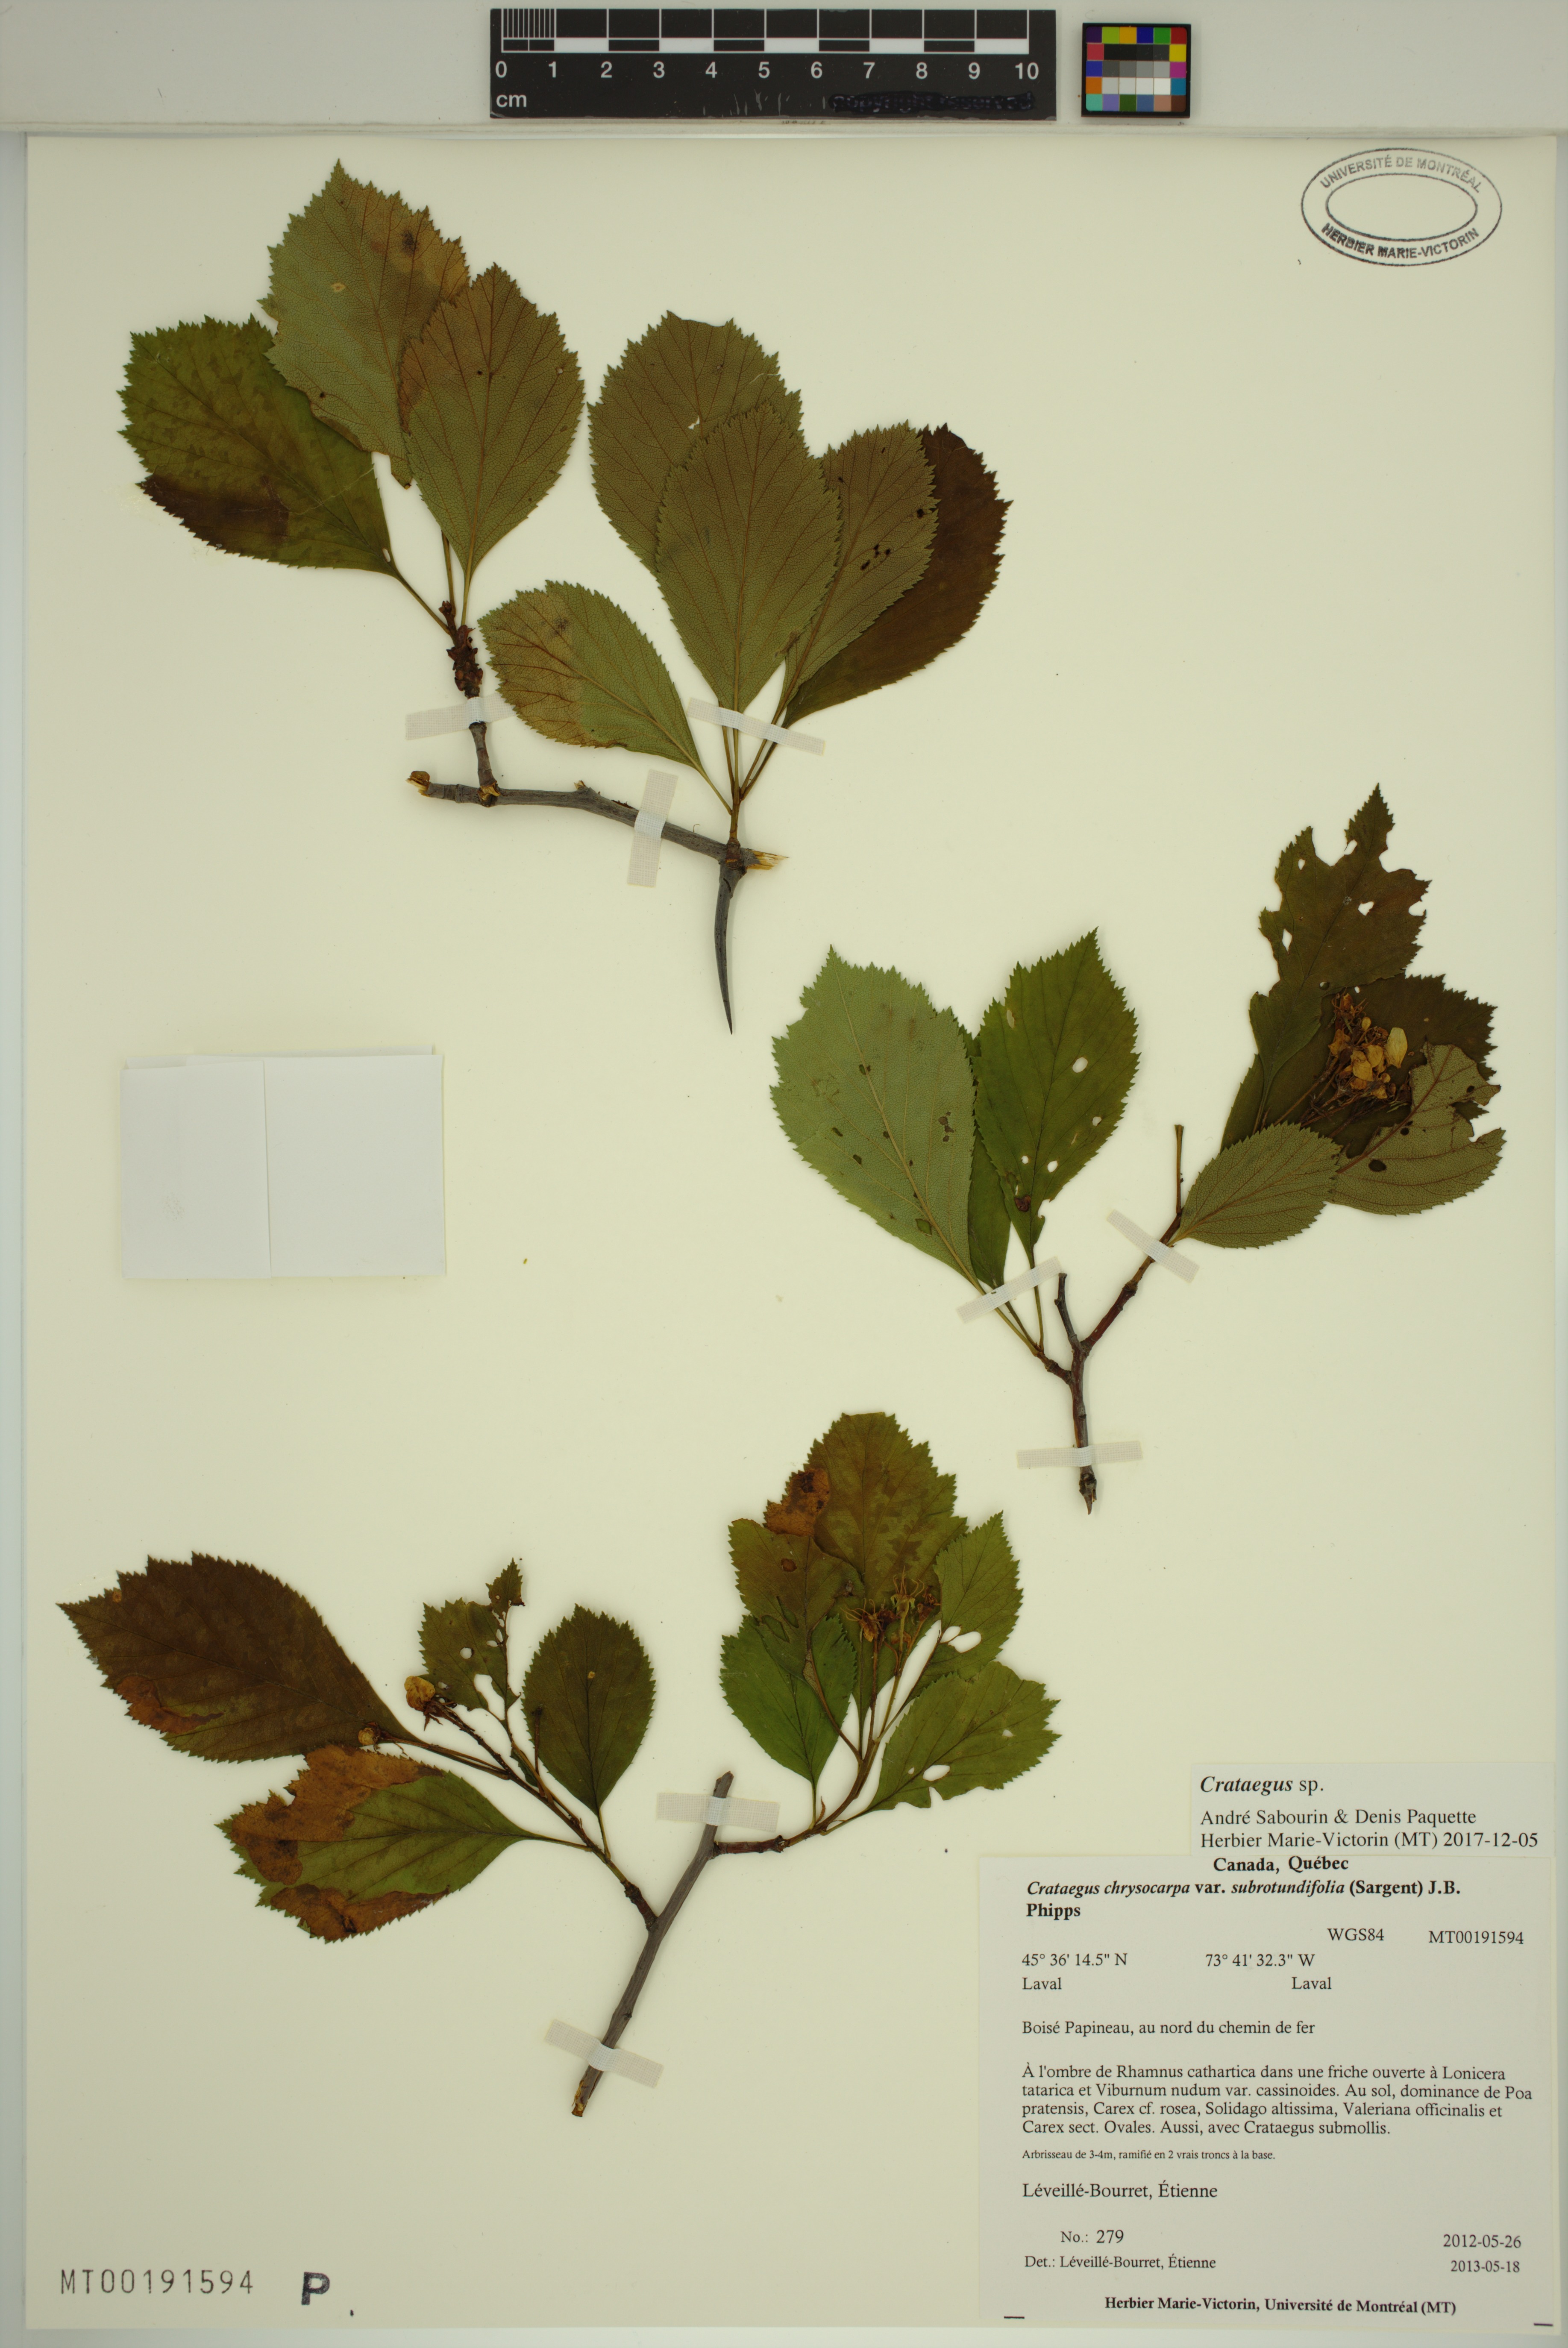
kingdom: Plantae
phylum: Tracheophyta
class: Magnoliopsida
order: Rosales
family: Rosaceae
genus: Crataegus
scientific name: Crataegus macracantha
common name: Large-thorn hawthorn
